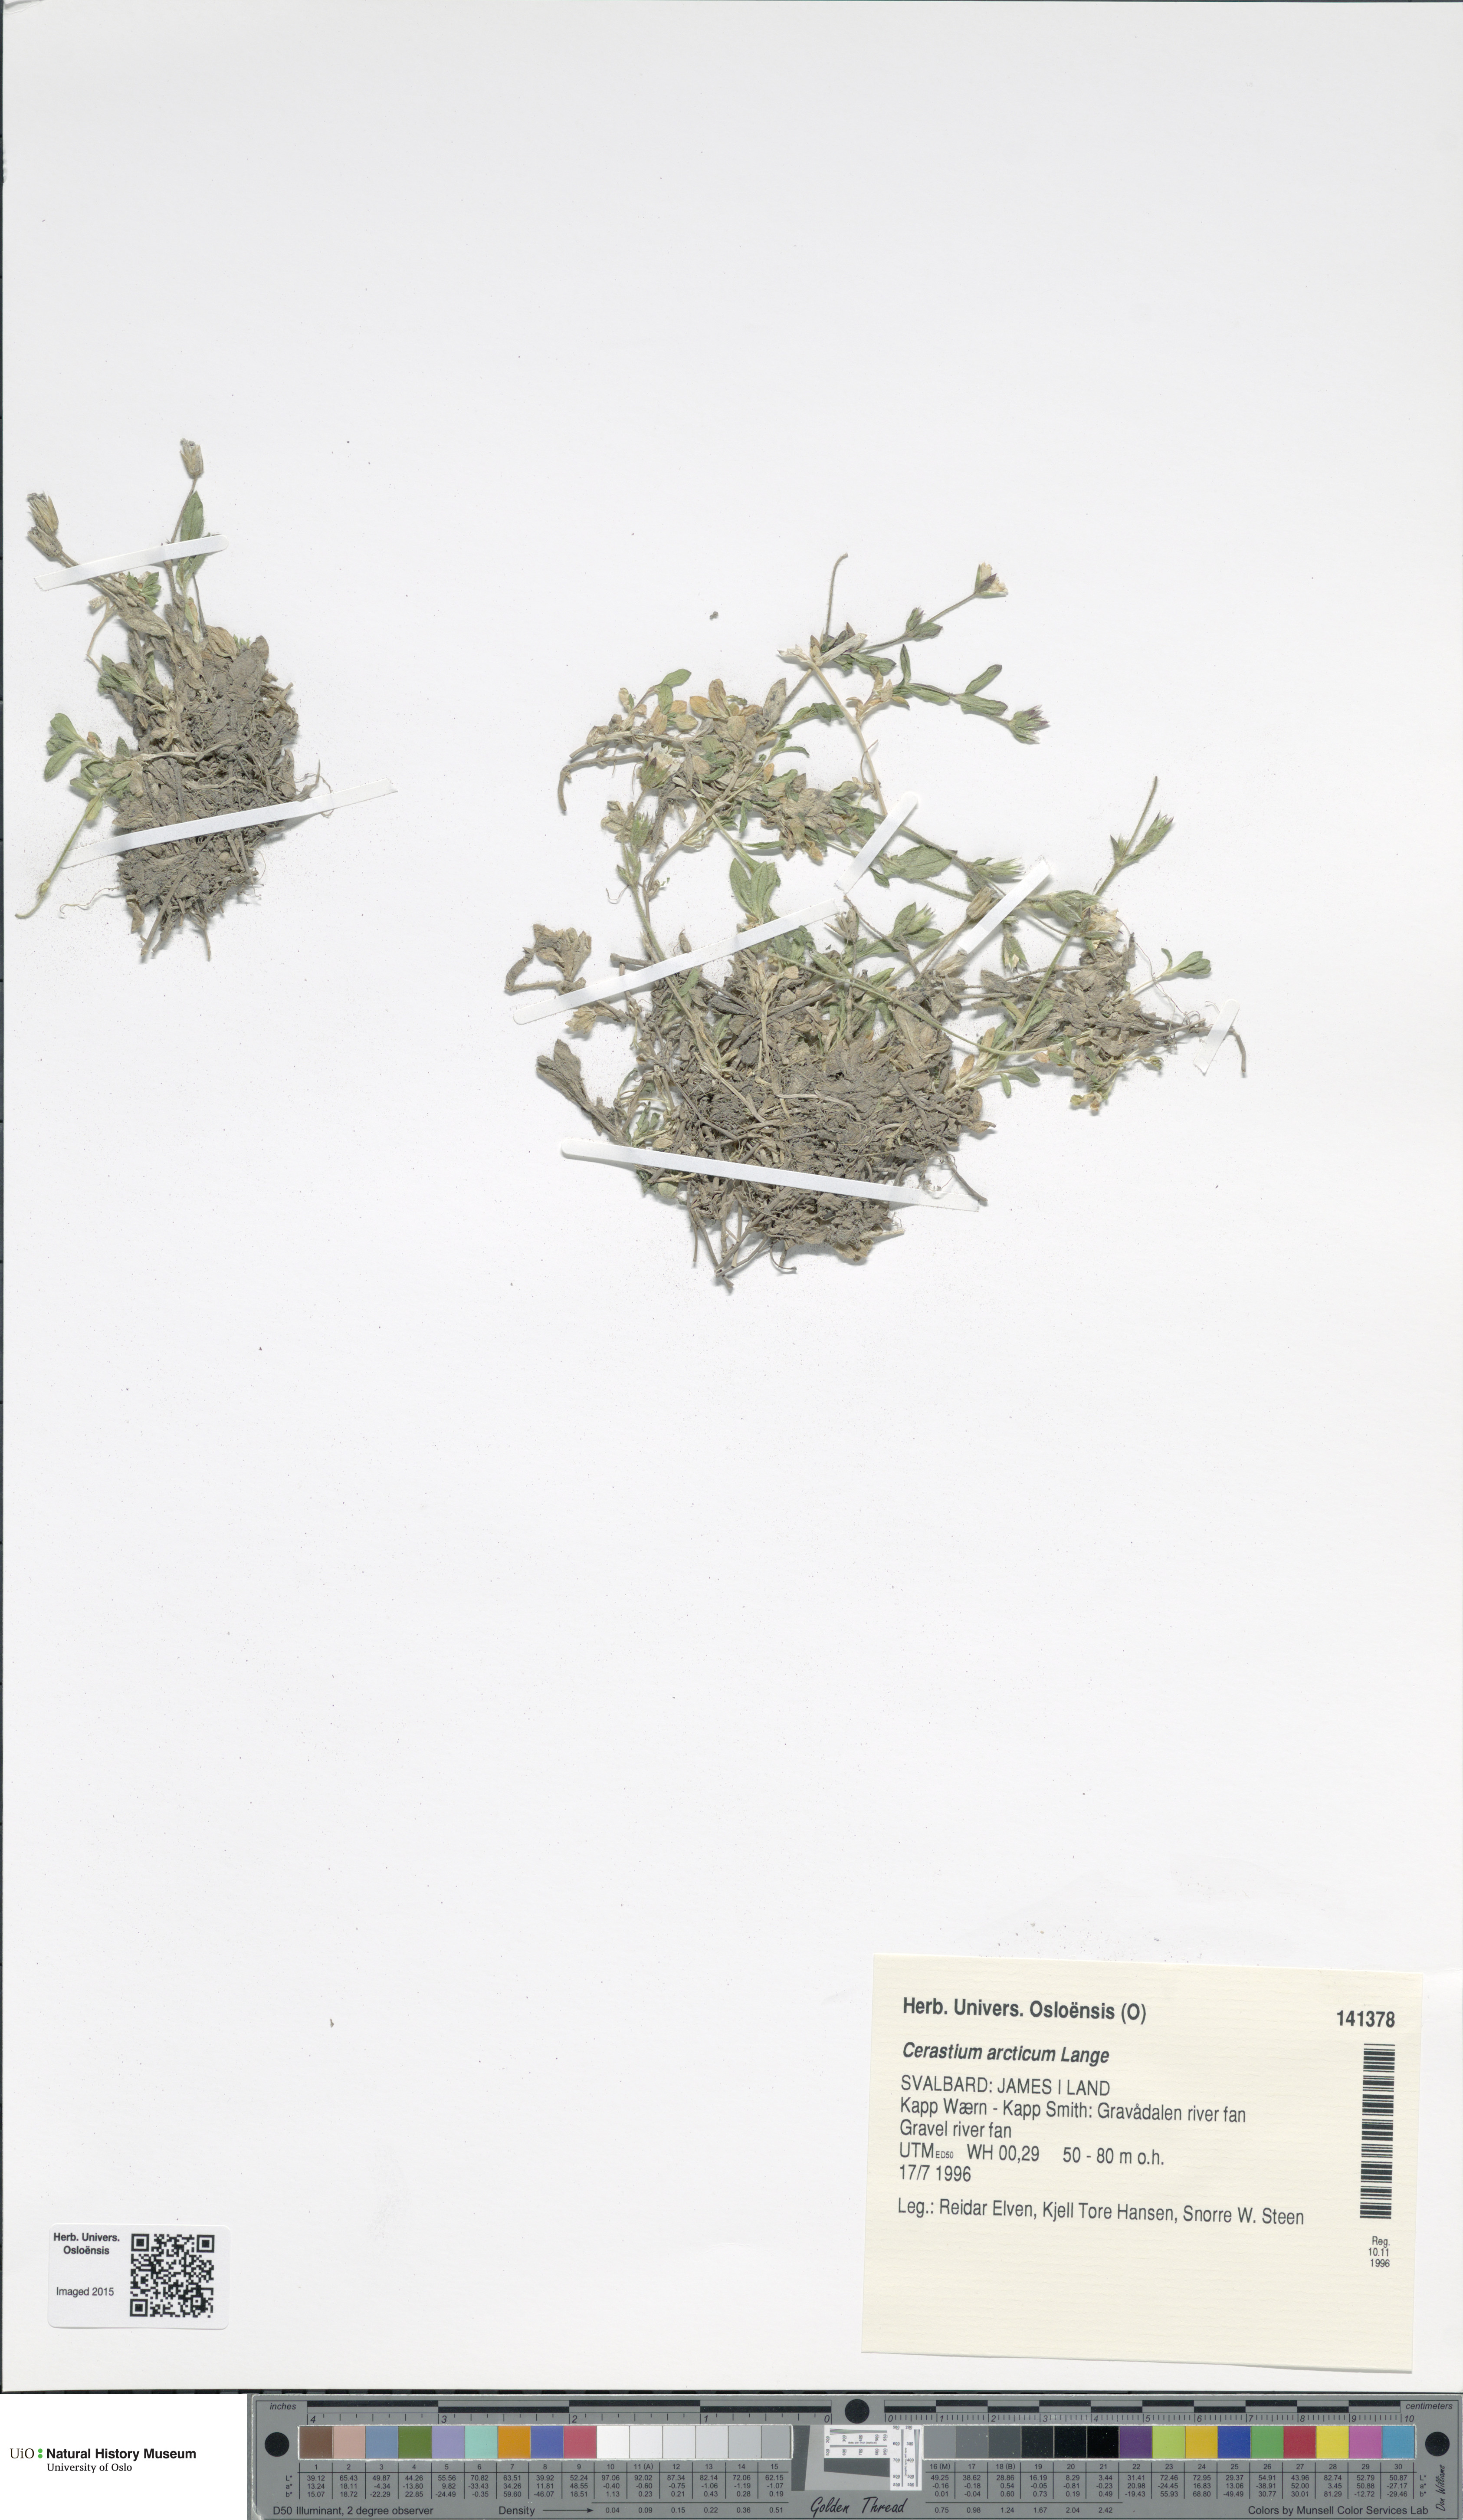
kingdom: Plantae
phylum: Tracheophyta
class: Magnoliopsida
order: Caryophyllales
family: Caryophyllaceae
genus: Cerastium
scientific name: Cerastium arcticum
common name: Arctic mouse-ear
